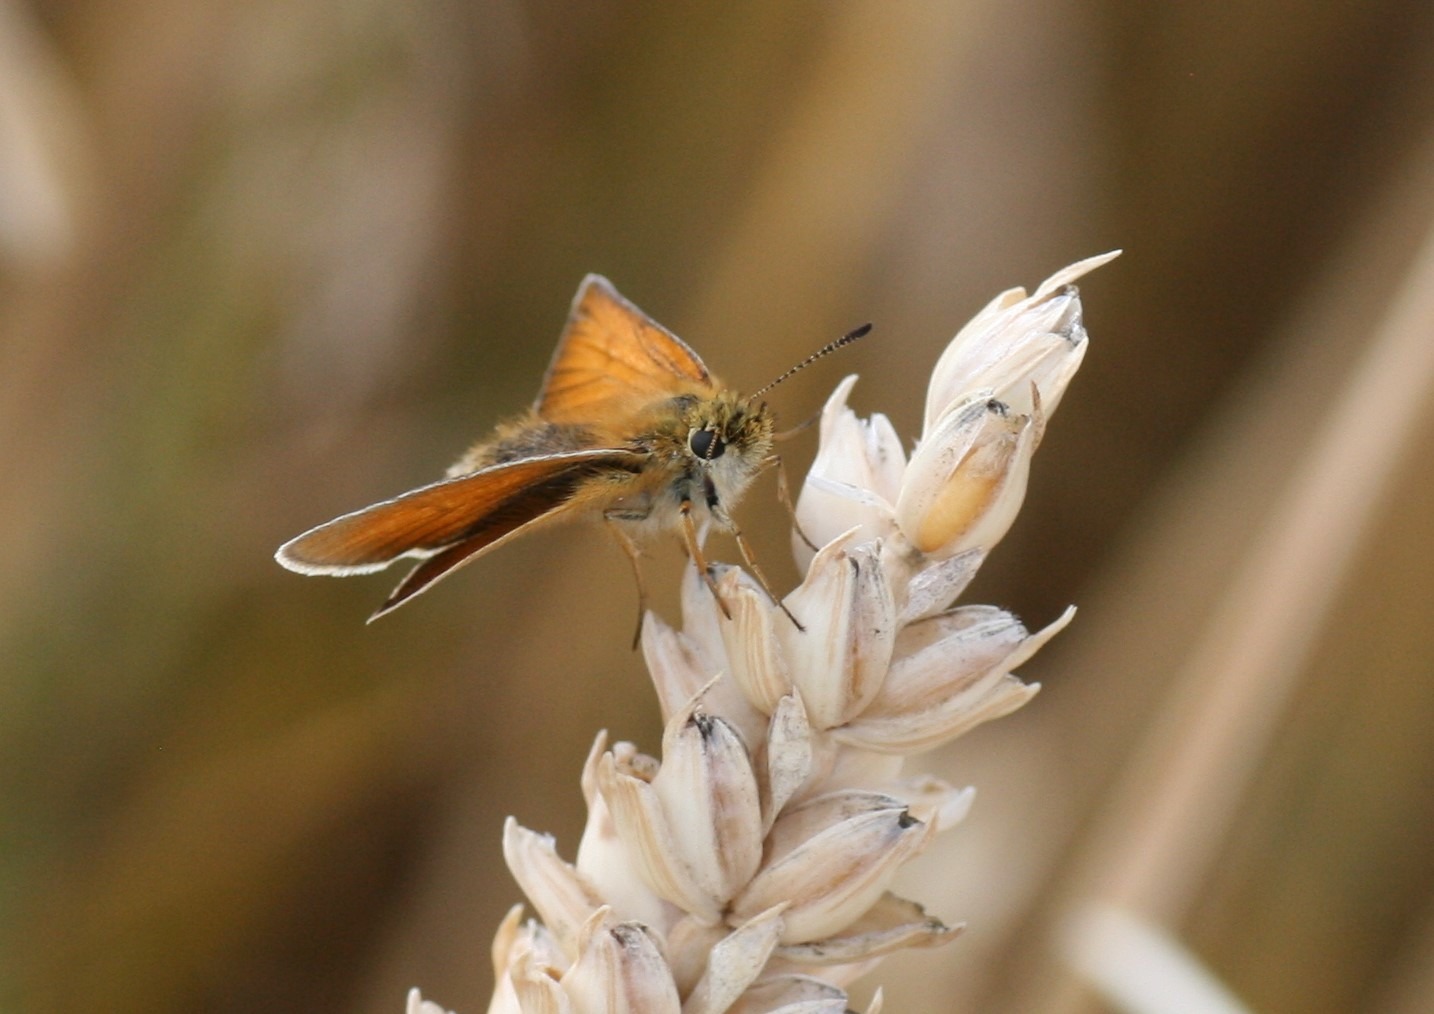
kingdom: Animalia
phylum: Arthropoda
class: Insecta
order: Lepidoptera
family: Hesperiidae
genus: Thymelicus
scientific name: Thymelicus lineola
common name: Stregbredpande
